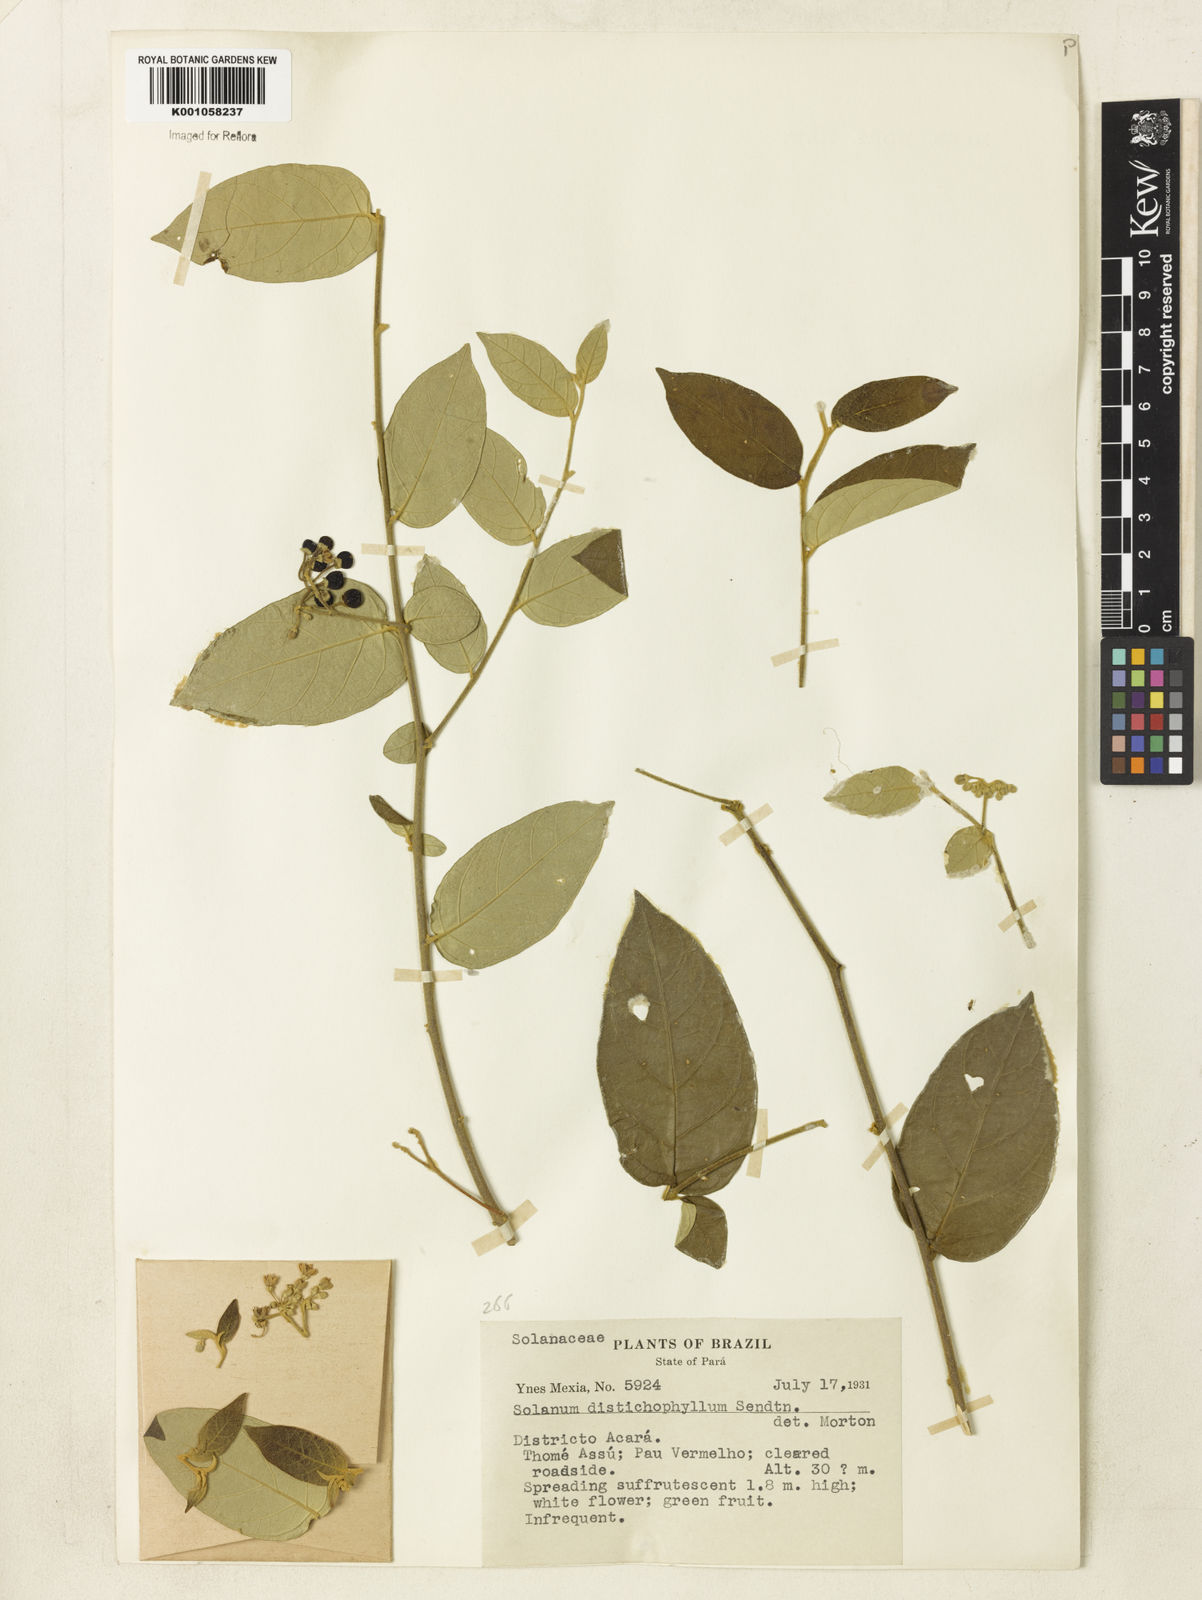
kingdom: Plantae
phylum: Tracheophyta
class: Magnoliopsida
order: Solanales
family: Solanaceae
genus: Solanum
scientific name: Solanum distichophyllum
